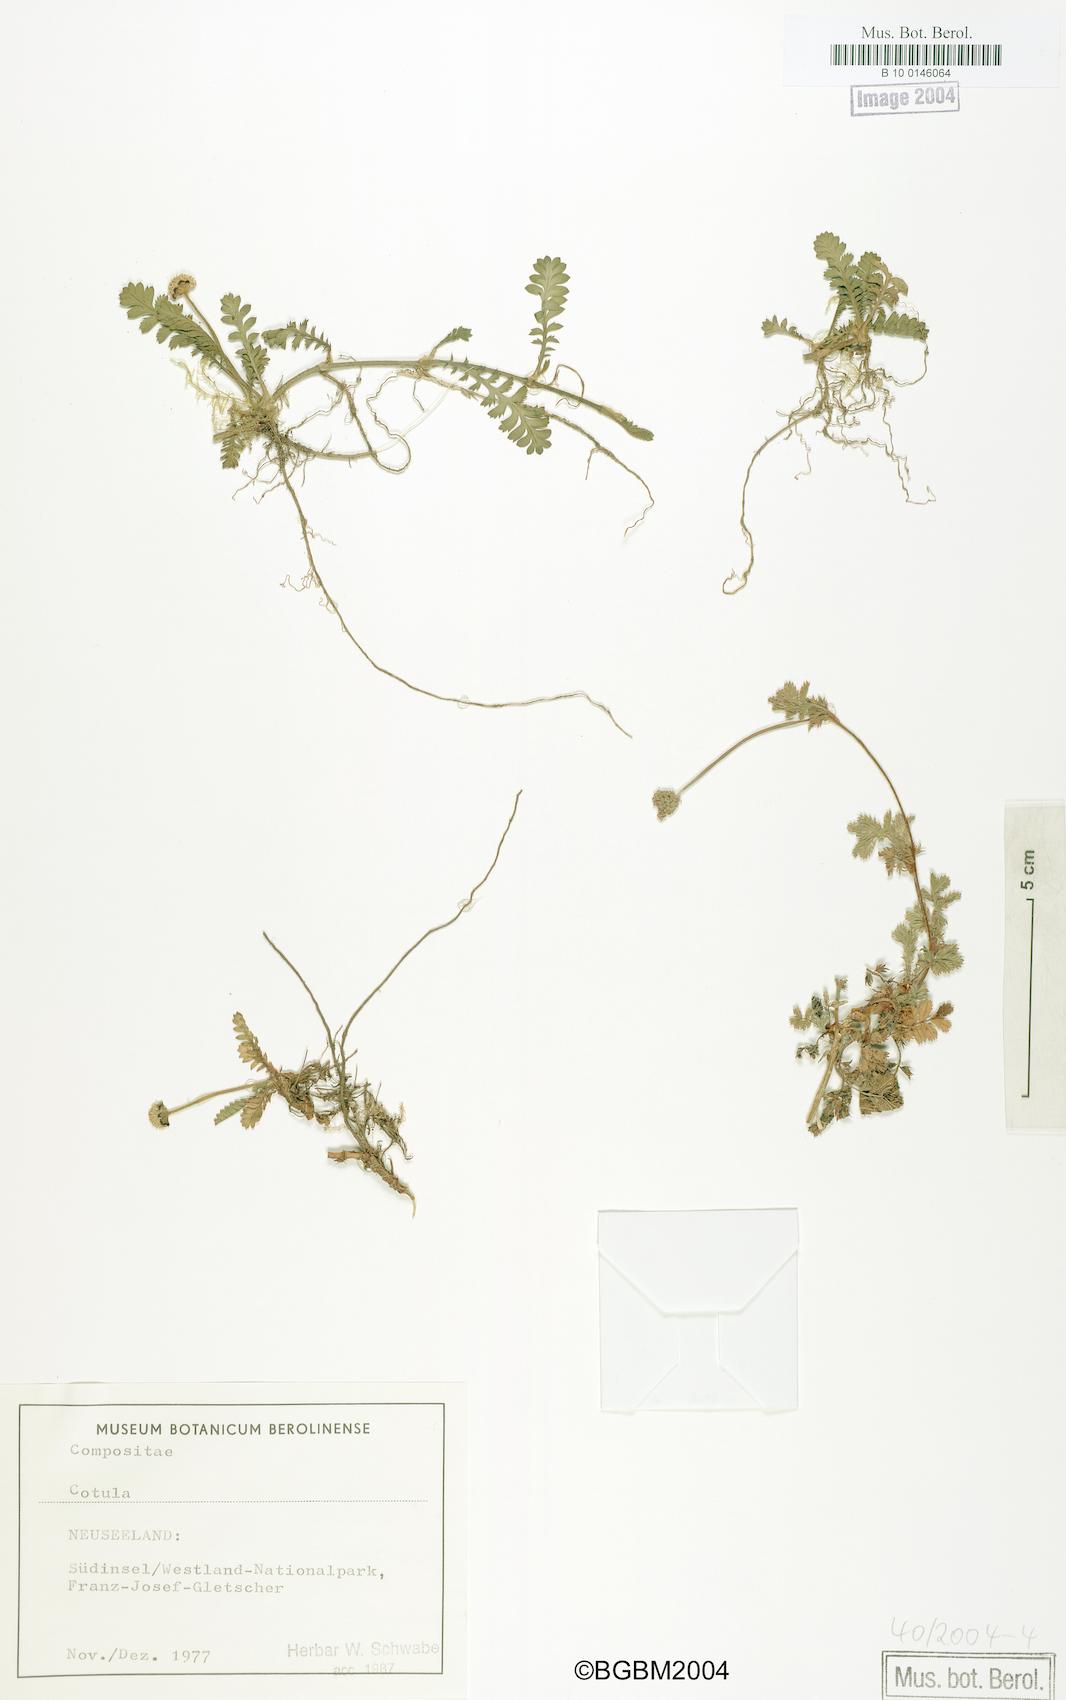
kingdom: Plantae
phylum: Tracheophyta
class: Magnoliopsida
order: Asterales
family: Asteraceae
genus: Cotula
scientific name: Cotula
